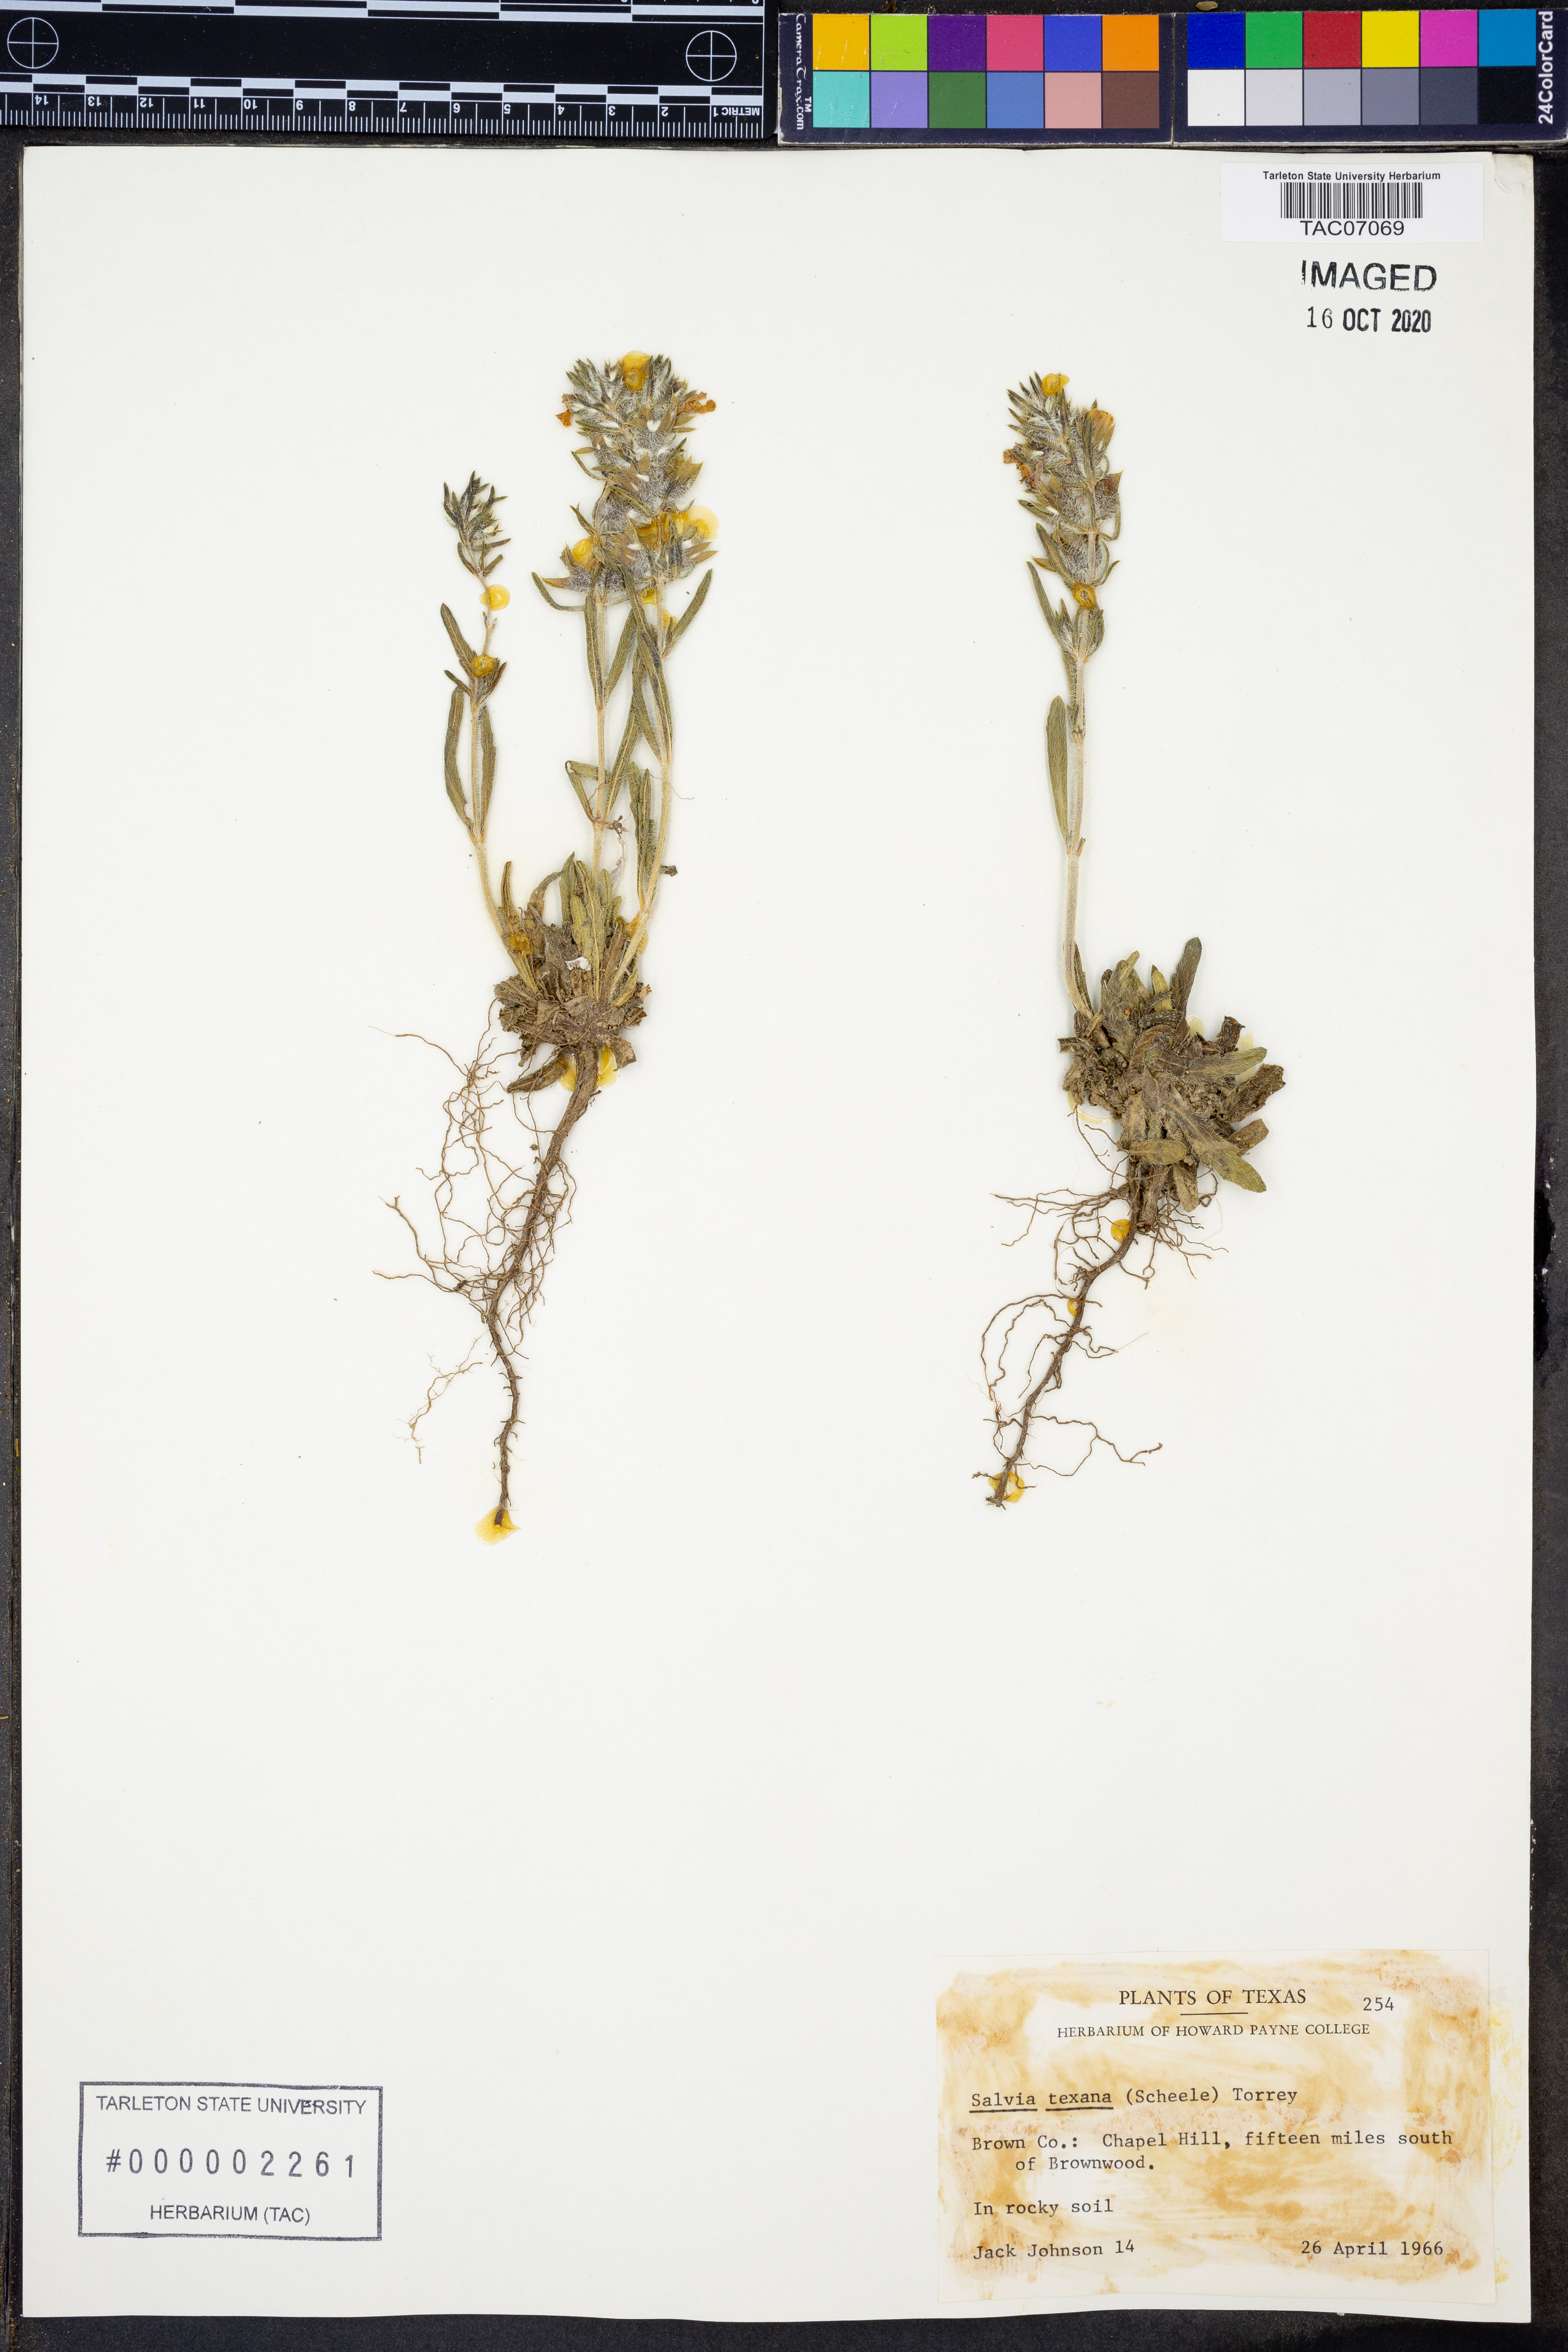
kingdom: Plantae
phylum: Tracheophyta
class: Magnoliopsida
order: Lamiales
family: Lamiaceae
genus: Salvia
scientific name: Salvia texana
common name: Texas sage
